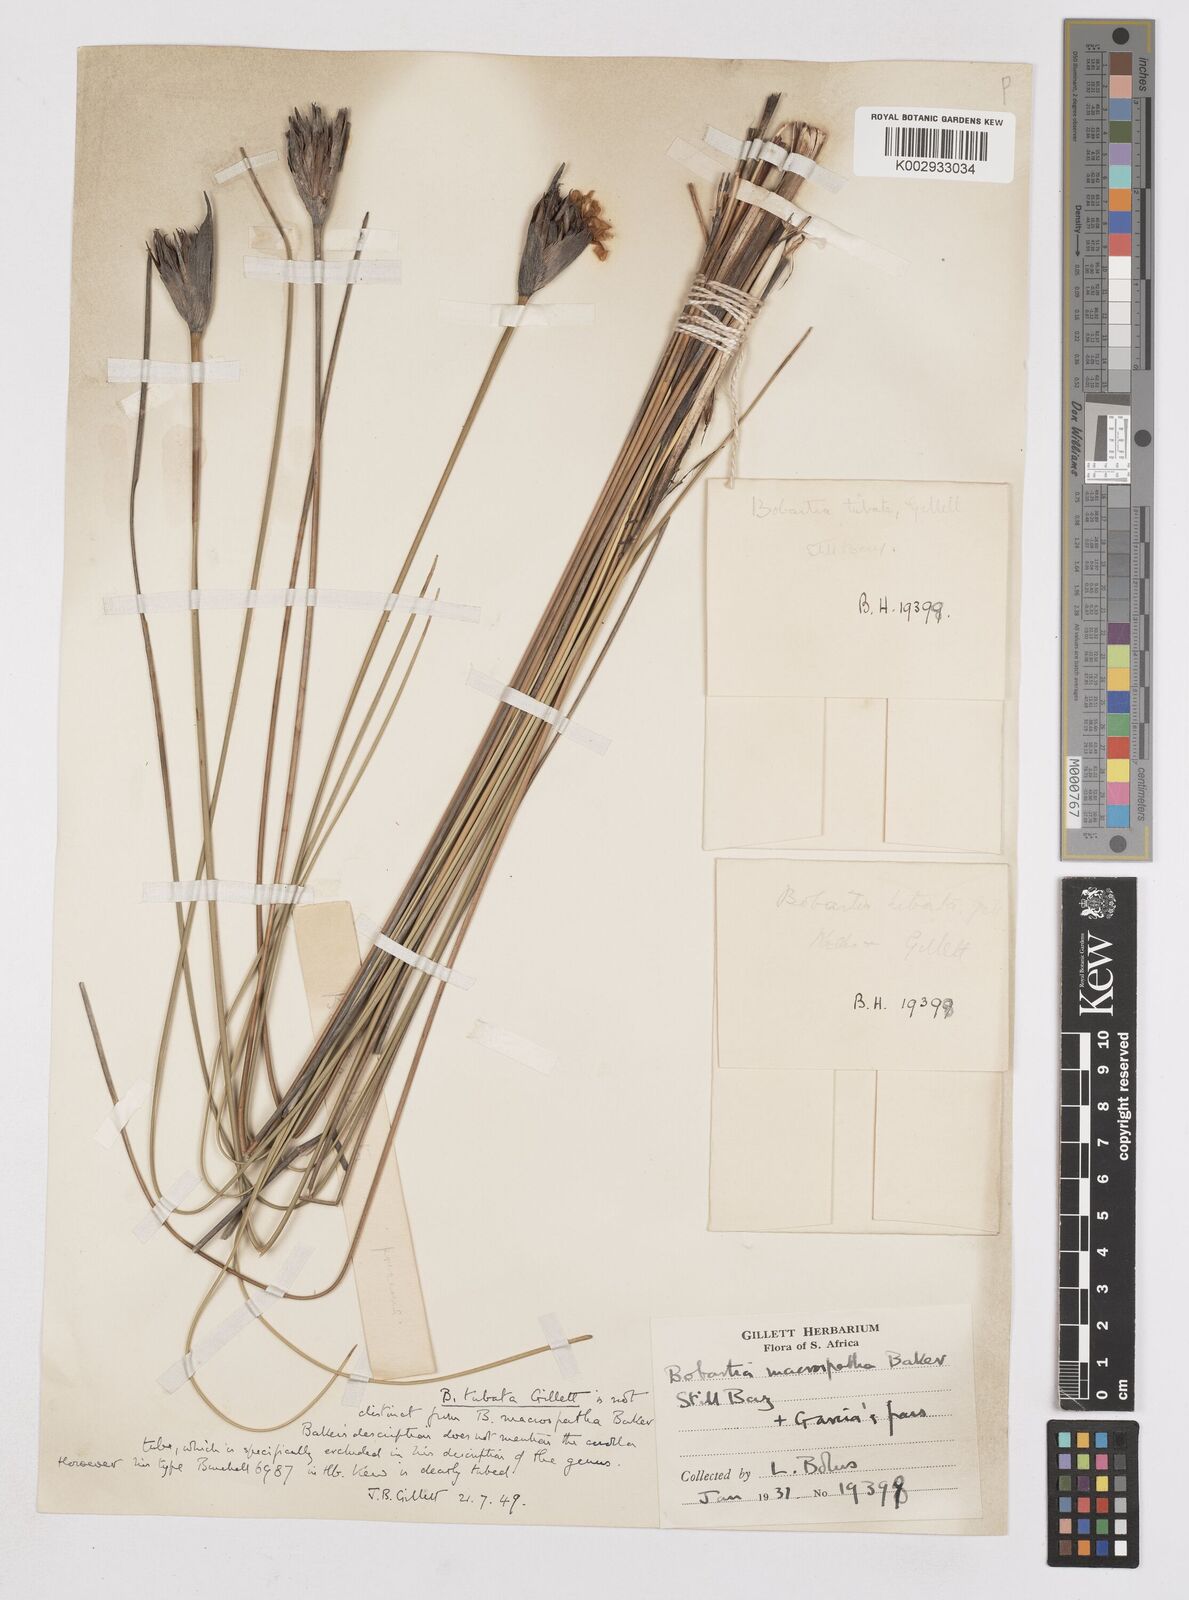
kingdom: Plantae
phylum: Tracheophyta
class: Liliopsida
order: Asparagales
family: Iridaceae
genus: Bobartia
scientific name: Bobartia macrospatha
